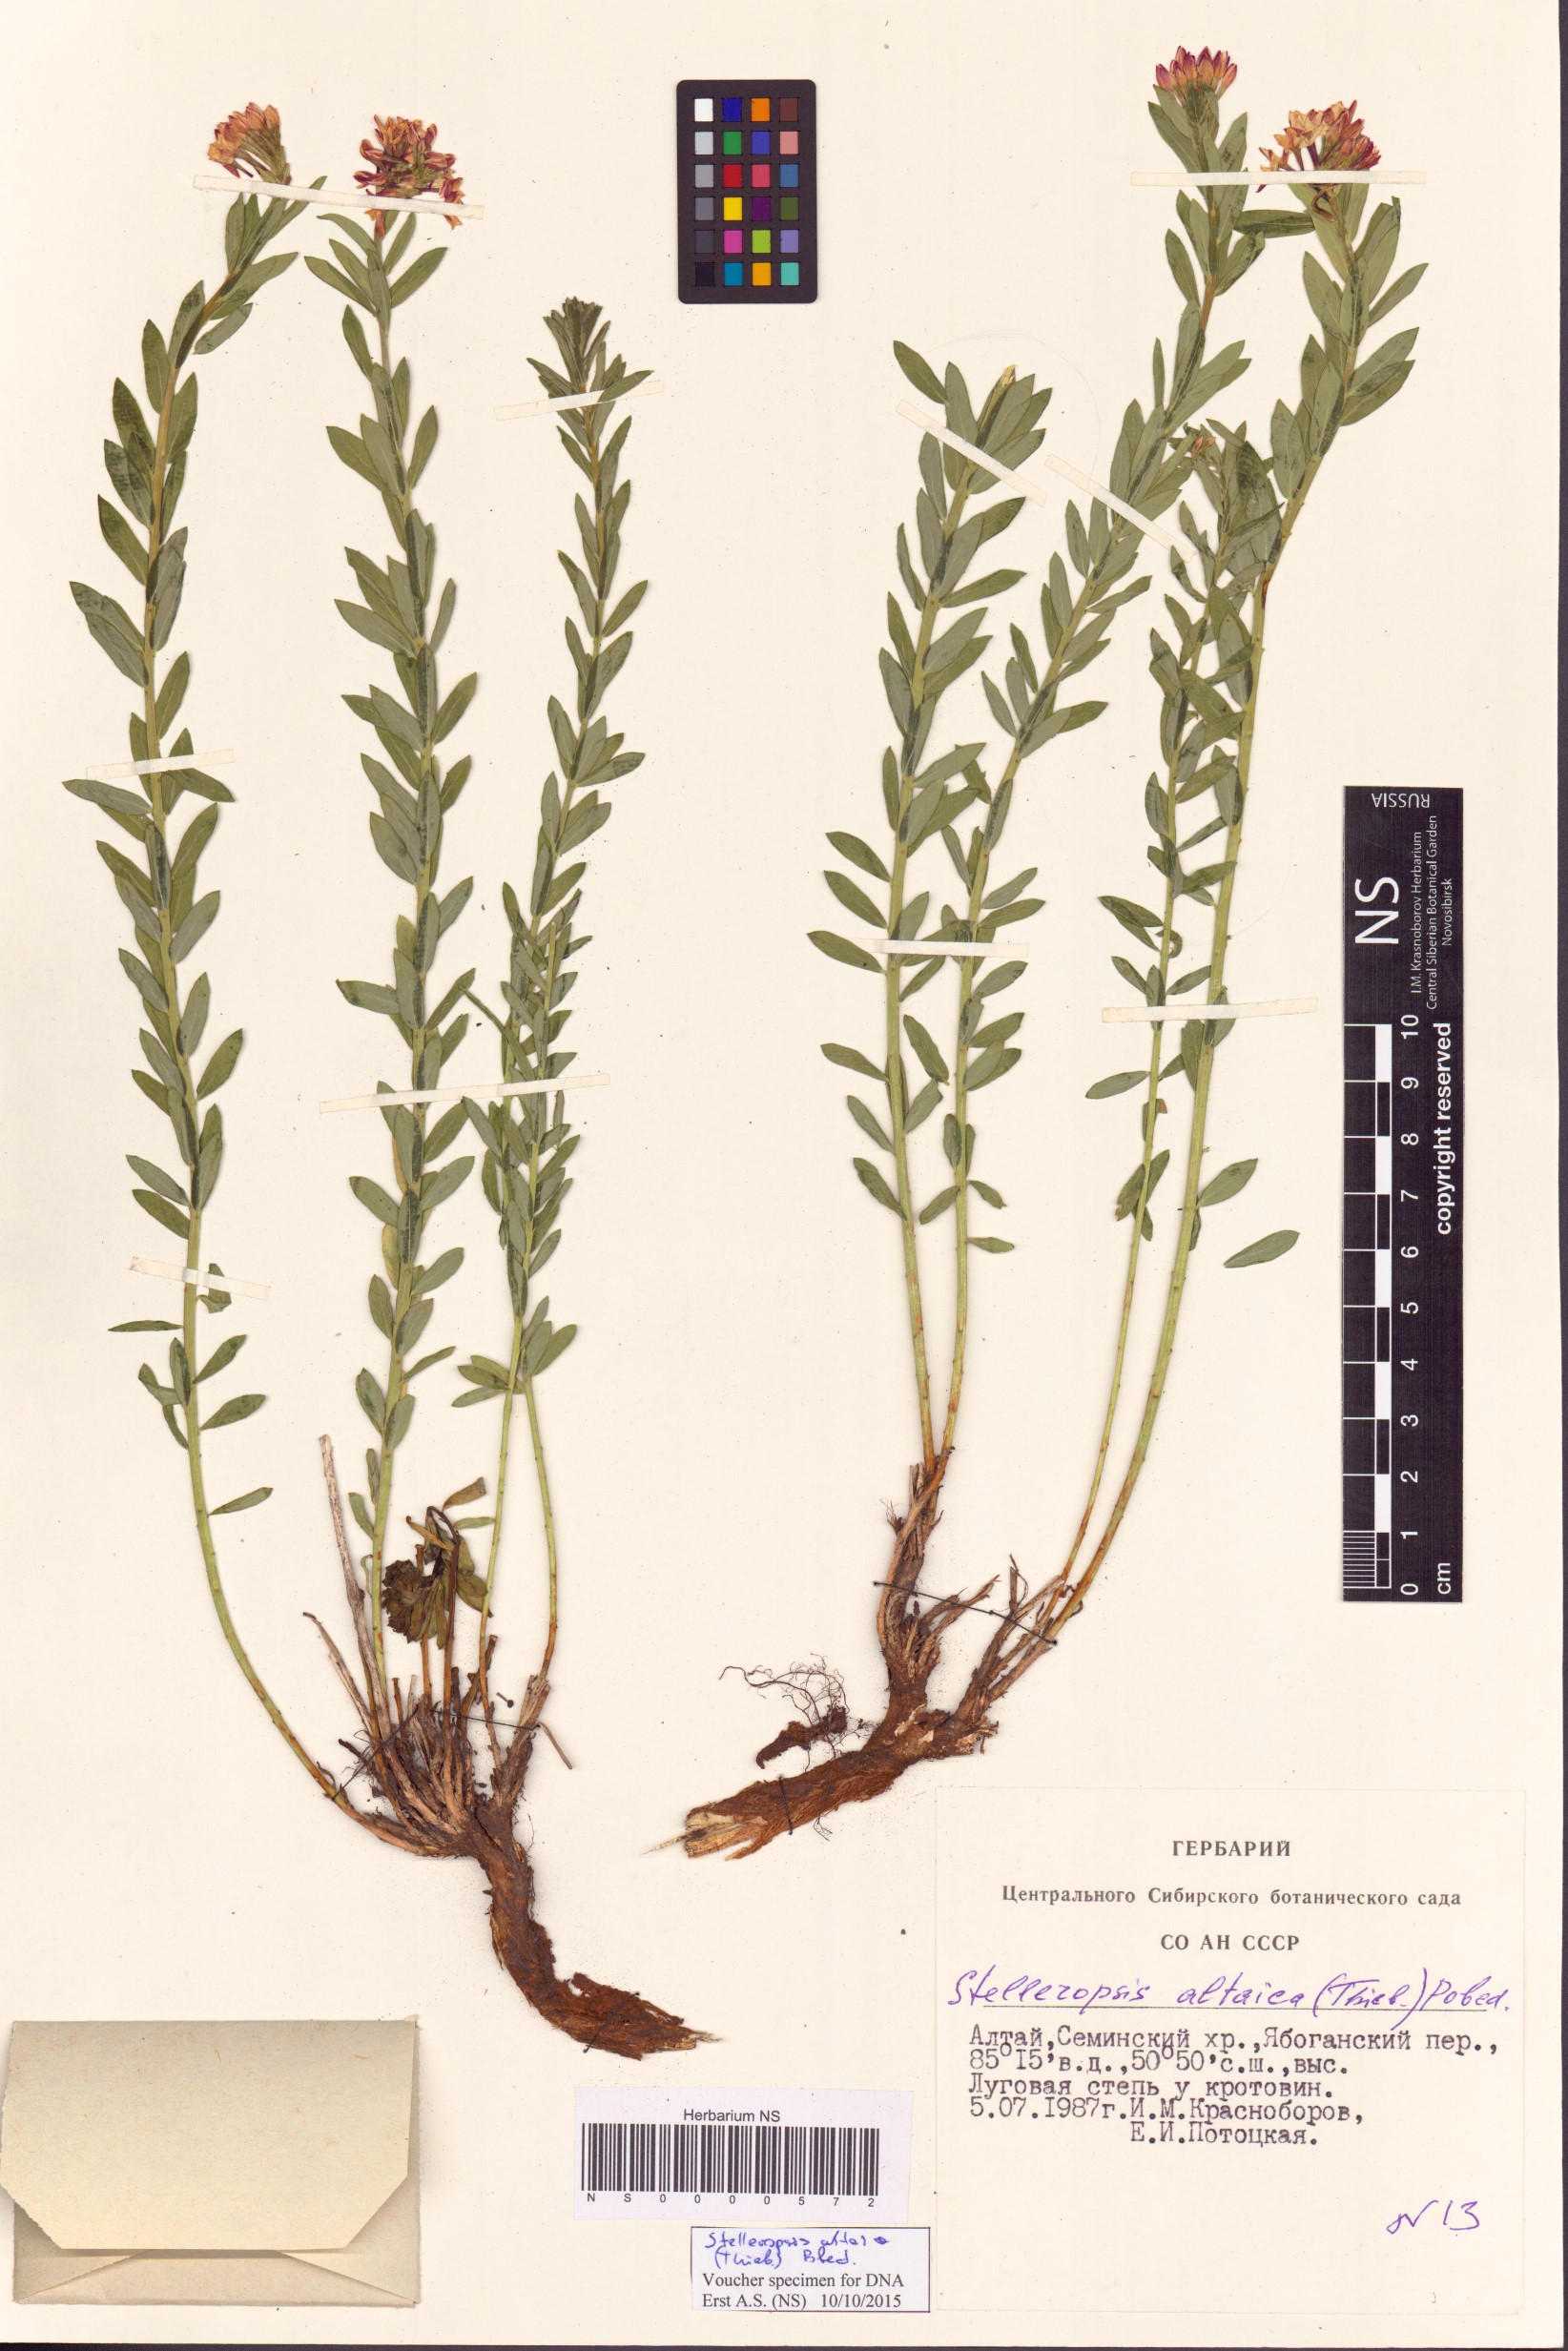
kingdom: Plantae
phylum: Tracheophyta
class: Magnoliopsida
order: Malvales
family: Thymelaeaceae
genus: Diarthron
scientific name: Diarthron altaicum
